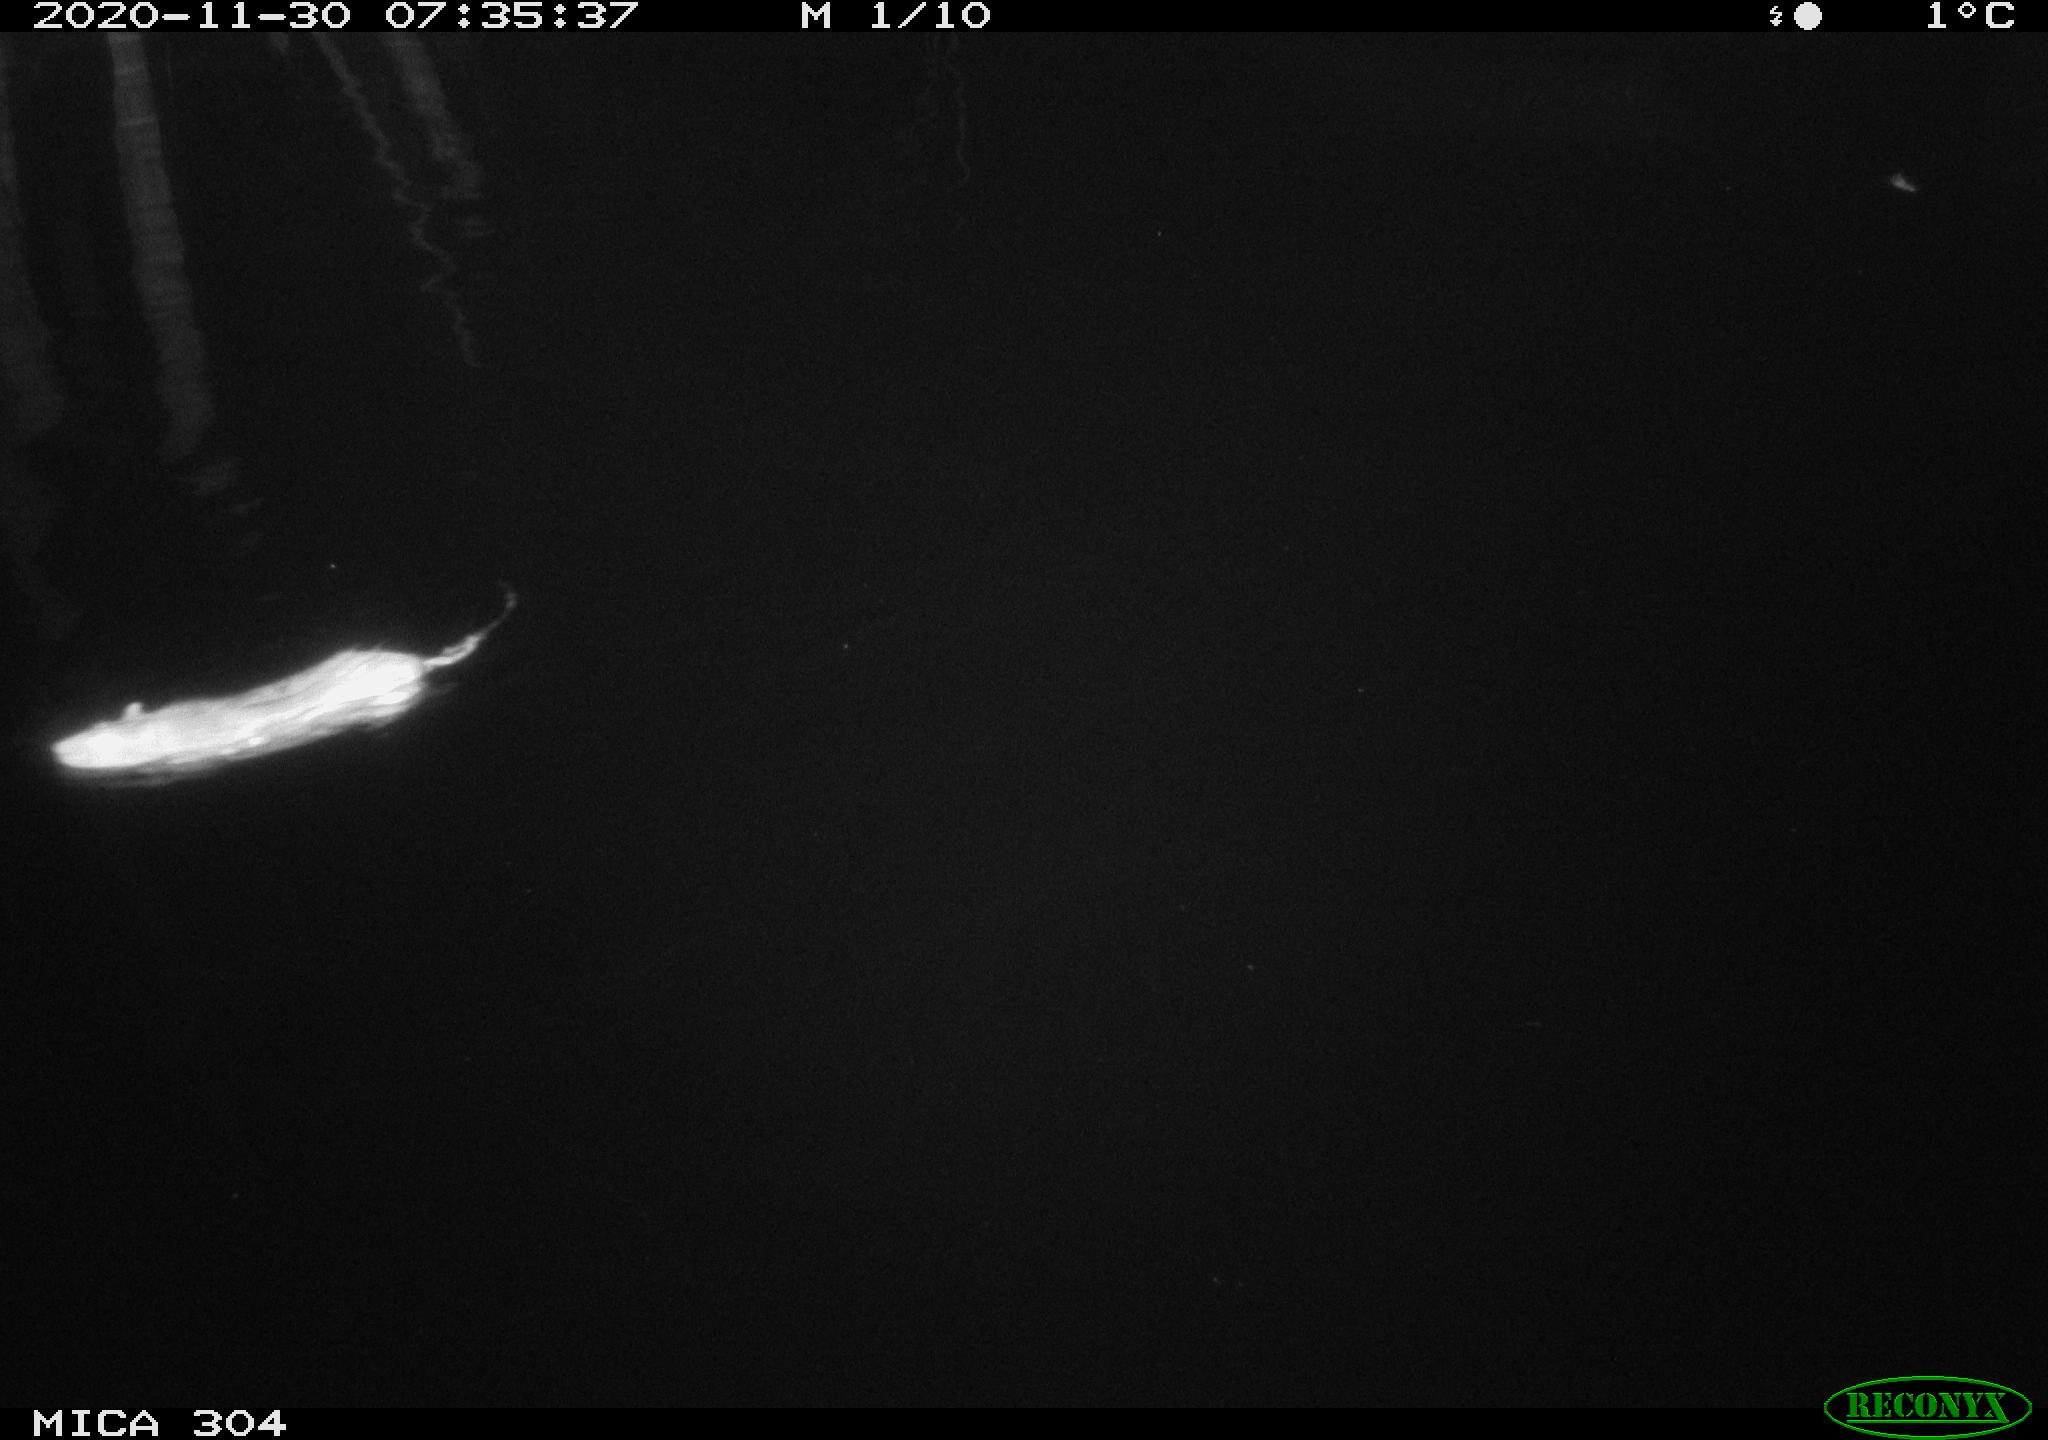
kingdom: Animalia
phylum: Chordata
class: Mammalia
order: Rodentia
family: Muridae
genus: Rattus
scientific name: Rattus norvegicus
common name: Brown rat
